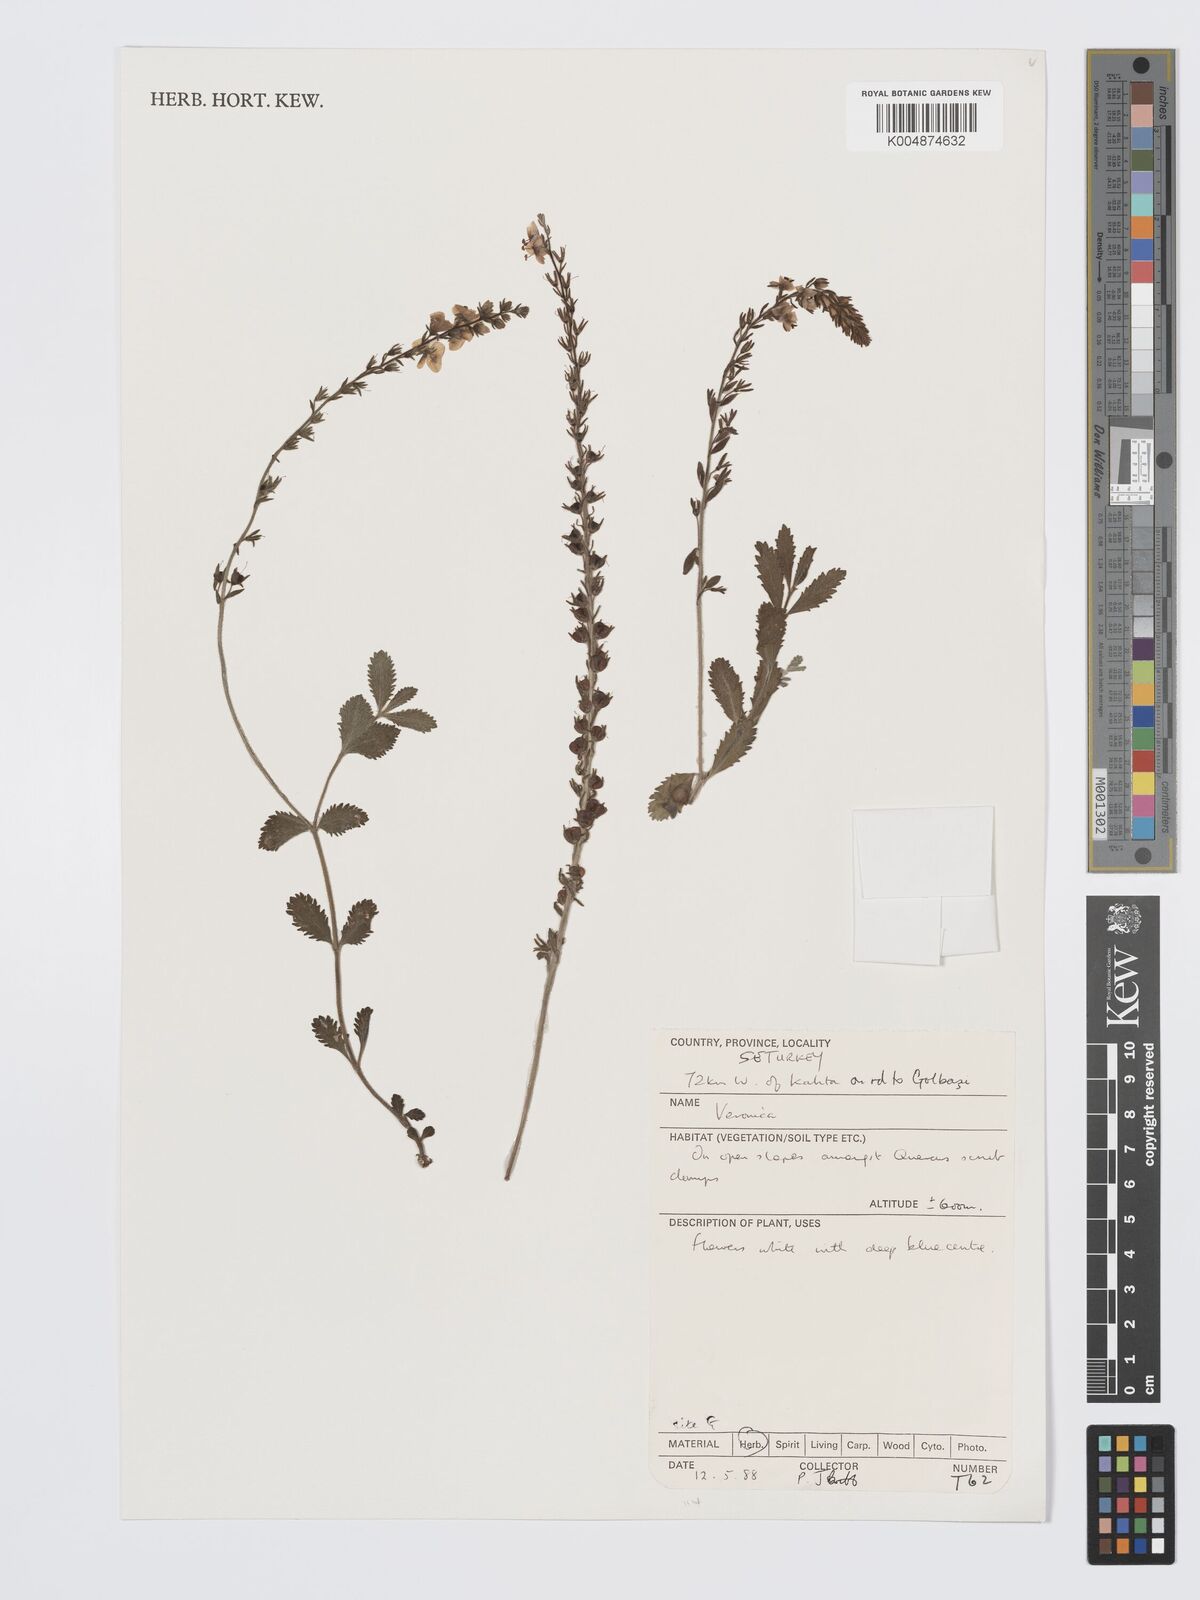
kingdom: Plantae
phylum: Tracheophyta
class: Magnoliopsida
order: Lamiales
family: Plantaginaceae
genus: Veronica
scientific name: Veronica
